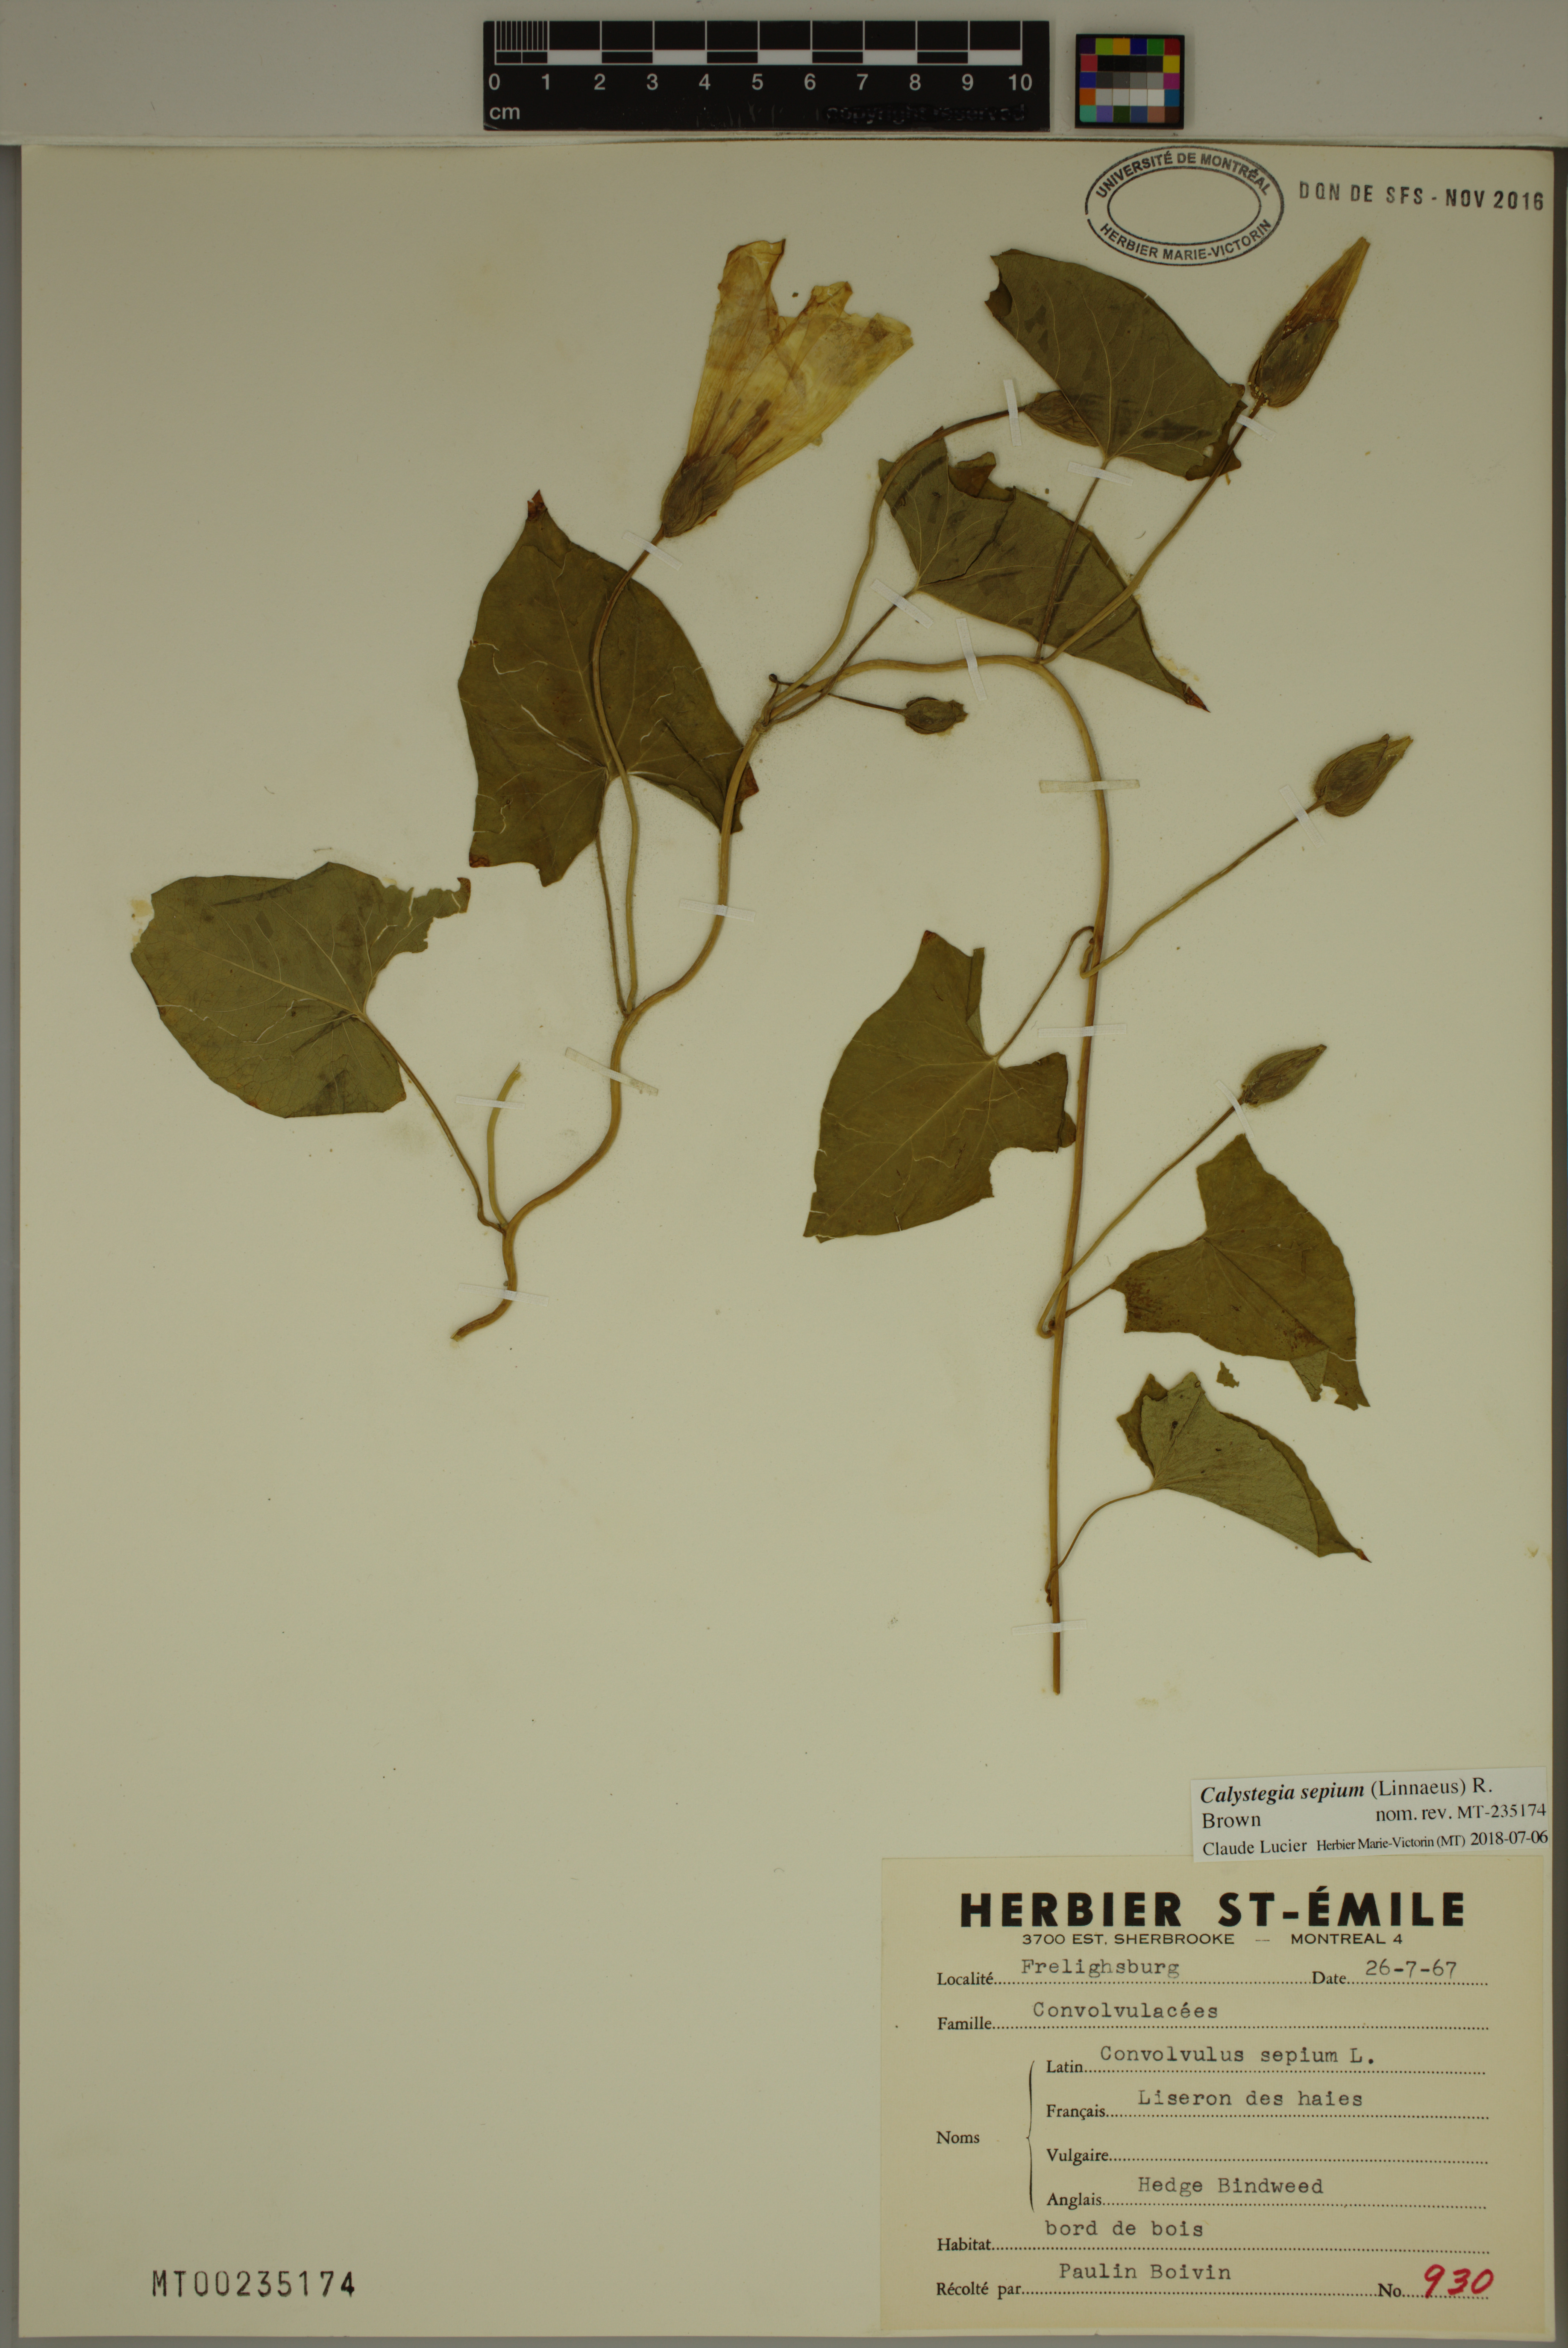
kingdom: Plantae
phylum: Tracheophyta
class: Magnoliopsida
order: Solanales
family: Convolvulaceae
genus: Calystegia
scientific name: Calystegia sepium
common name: Hedge bindweed
